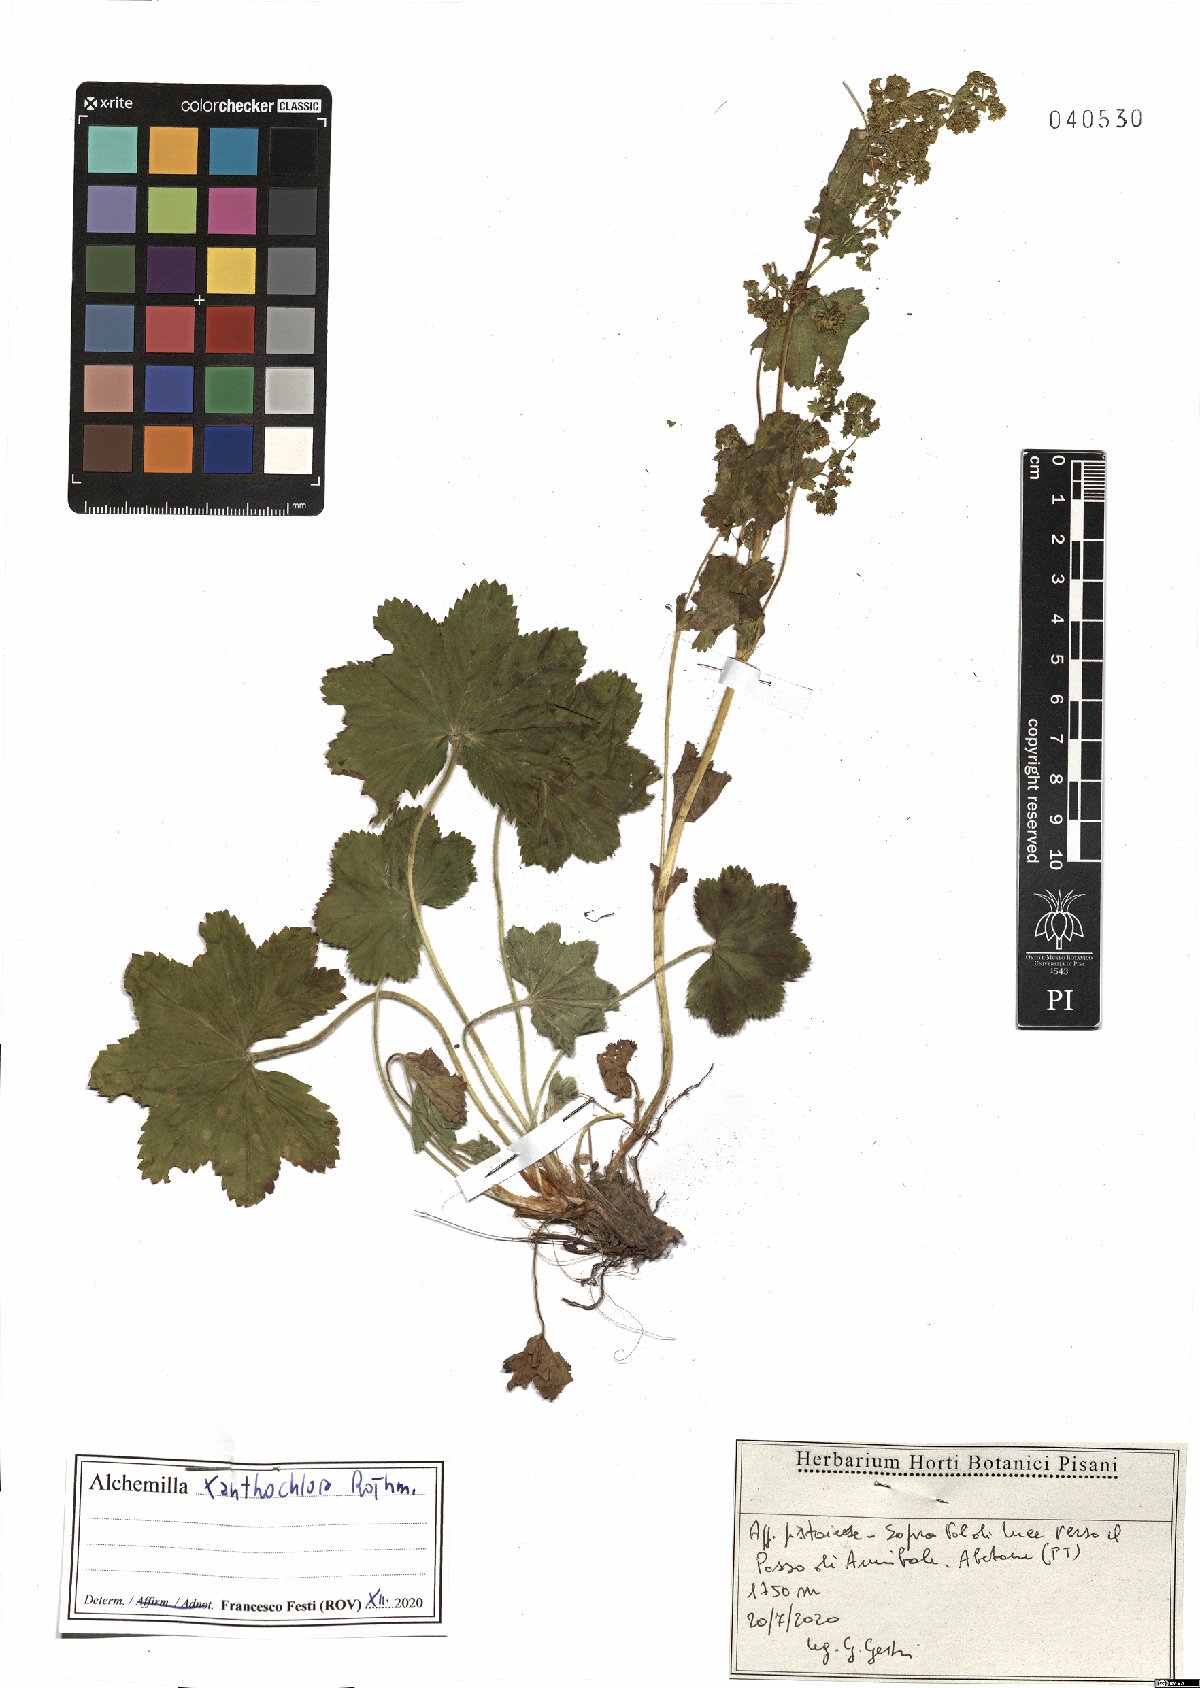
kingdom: Plantae
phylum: Tracheophyta
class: Magnoliopsida
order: Rosales
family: Rosaceae
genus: Alchemilla
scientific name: Alchemilla xanthochlora
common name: Intermediate lady's-mantle
